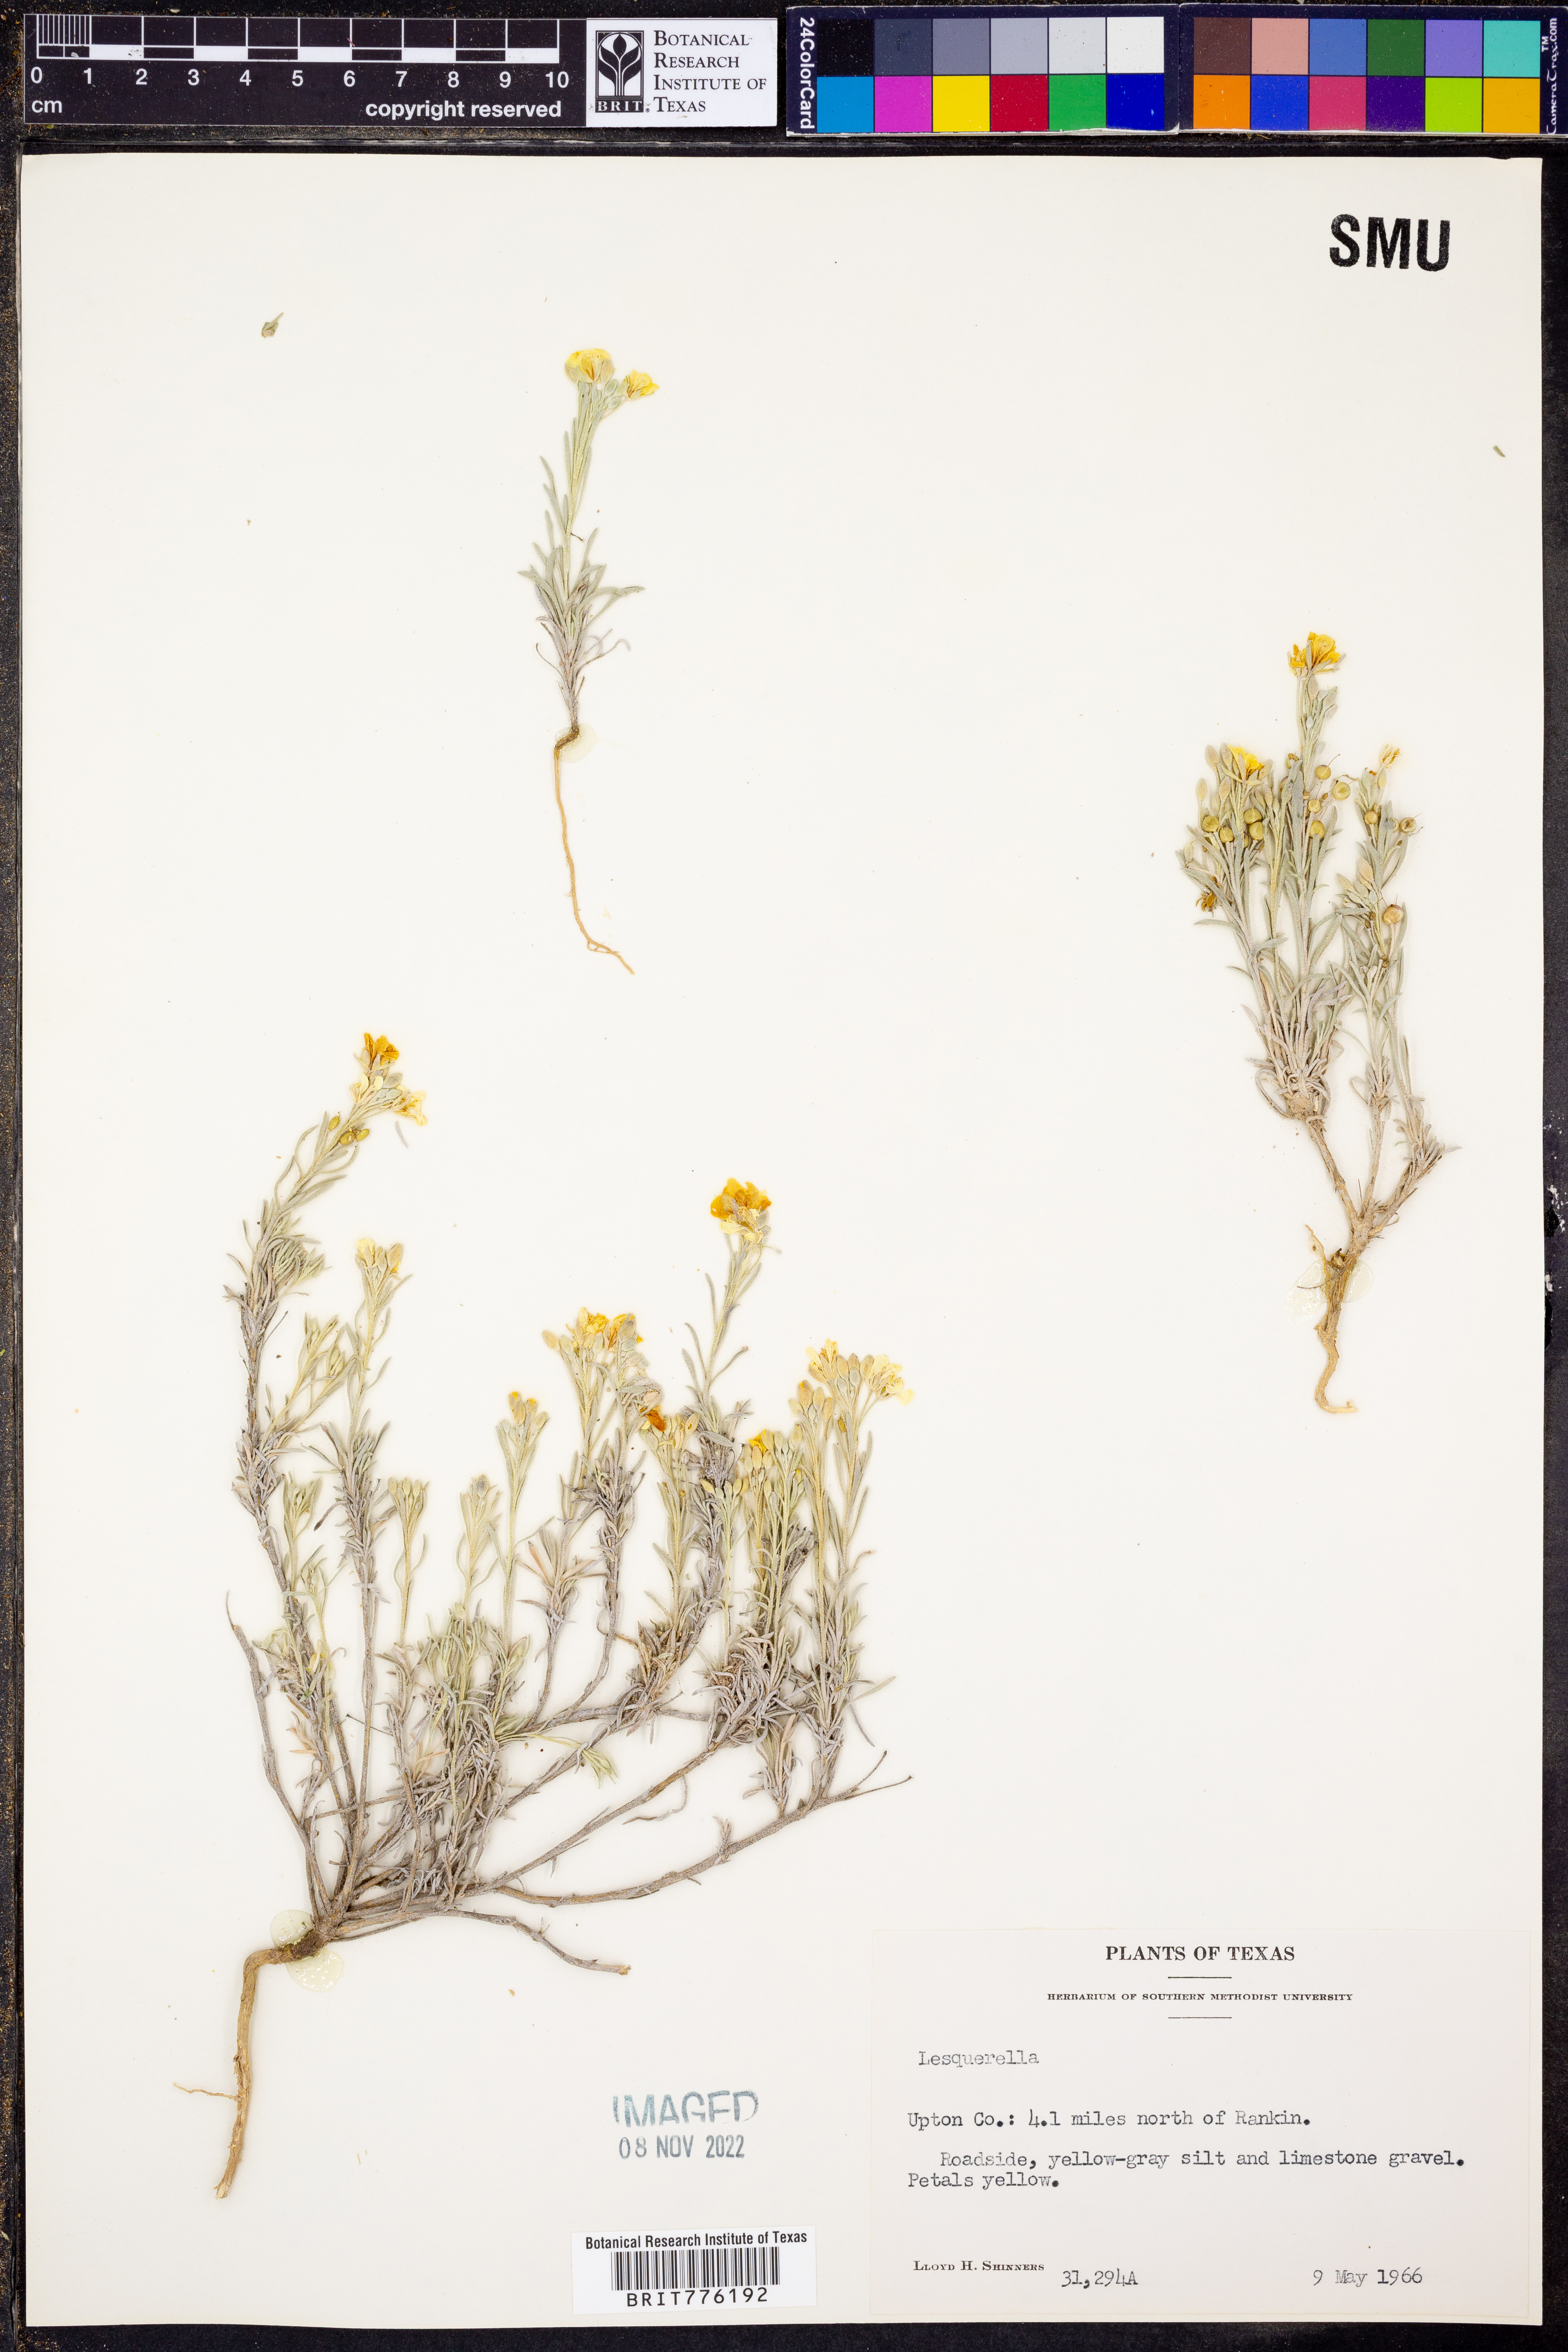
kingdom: Chromista
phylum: Cercozoa
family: Psammonobiotidae
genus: Lesquerella
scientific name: Lesquerella
